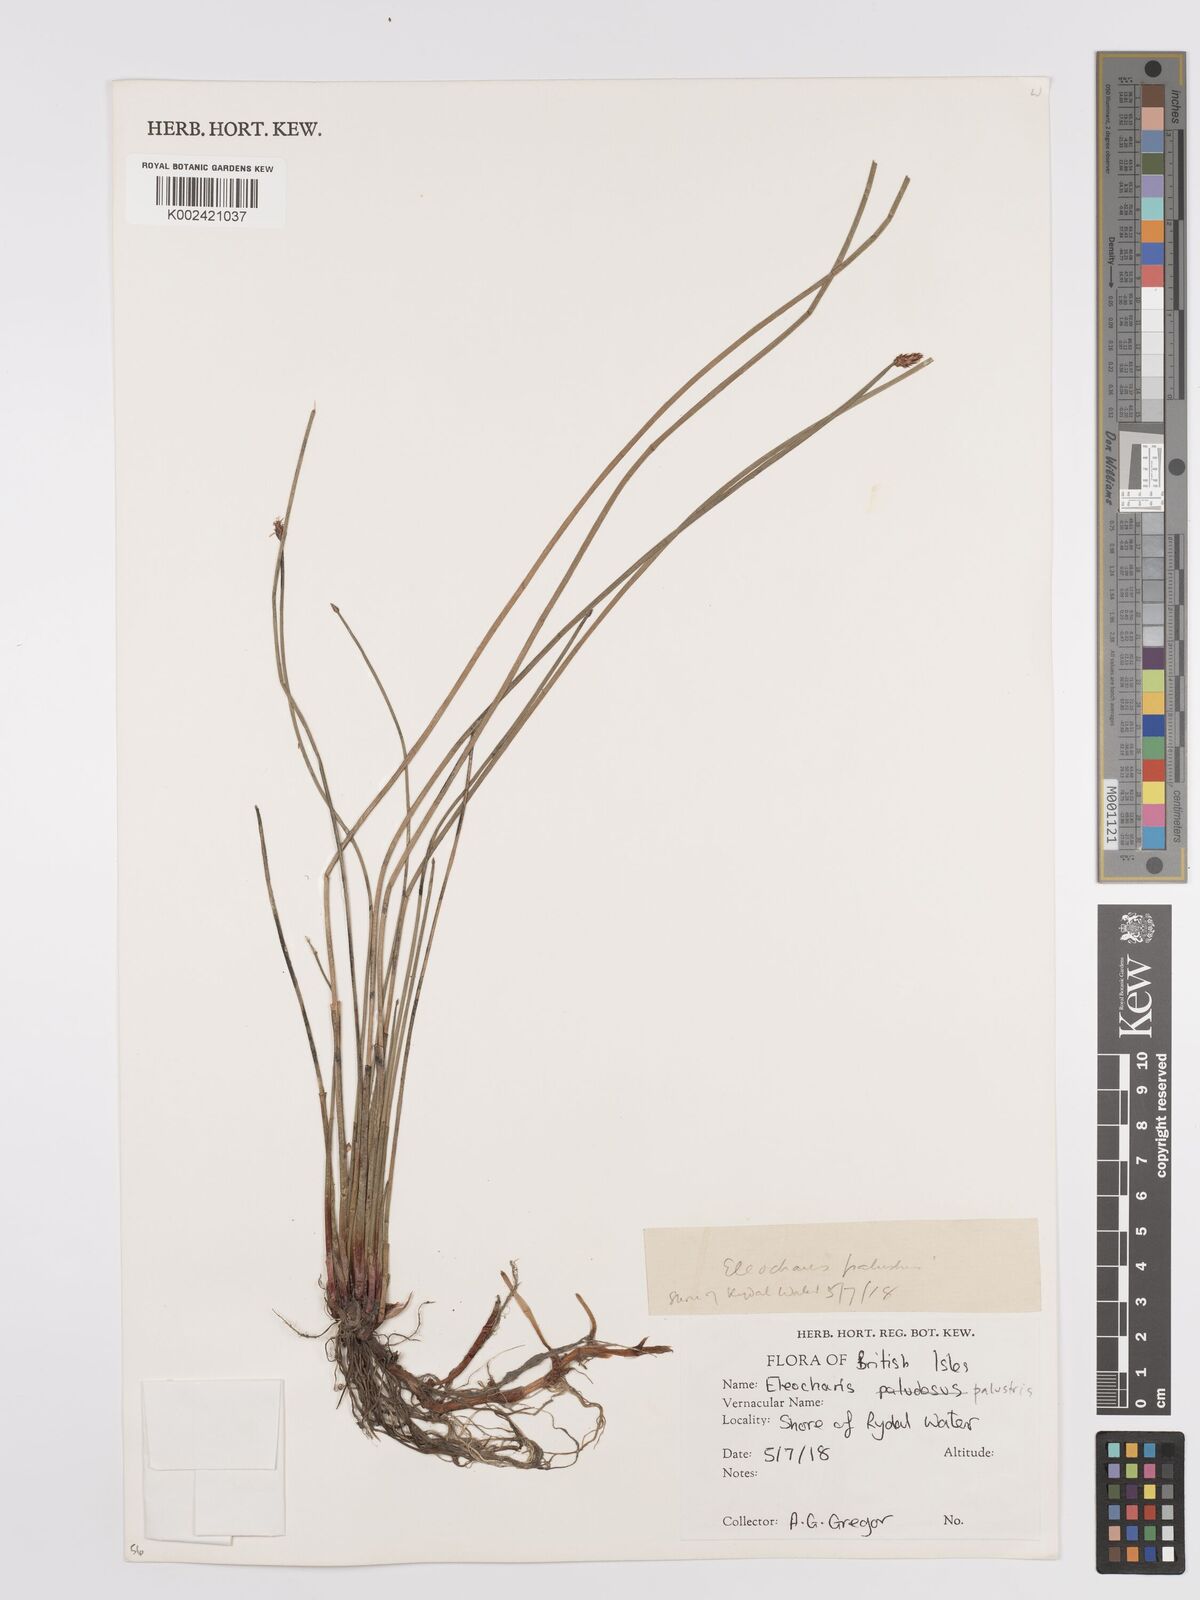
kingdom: Plantae
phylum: Tracheophyta
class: Liliopsida
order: Poales
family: Cyperaceae
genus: Eleocharis
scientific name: Eleocharis palustris
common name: Common spike-rush
